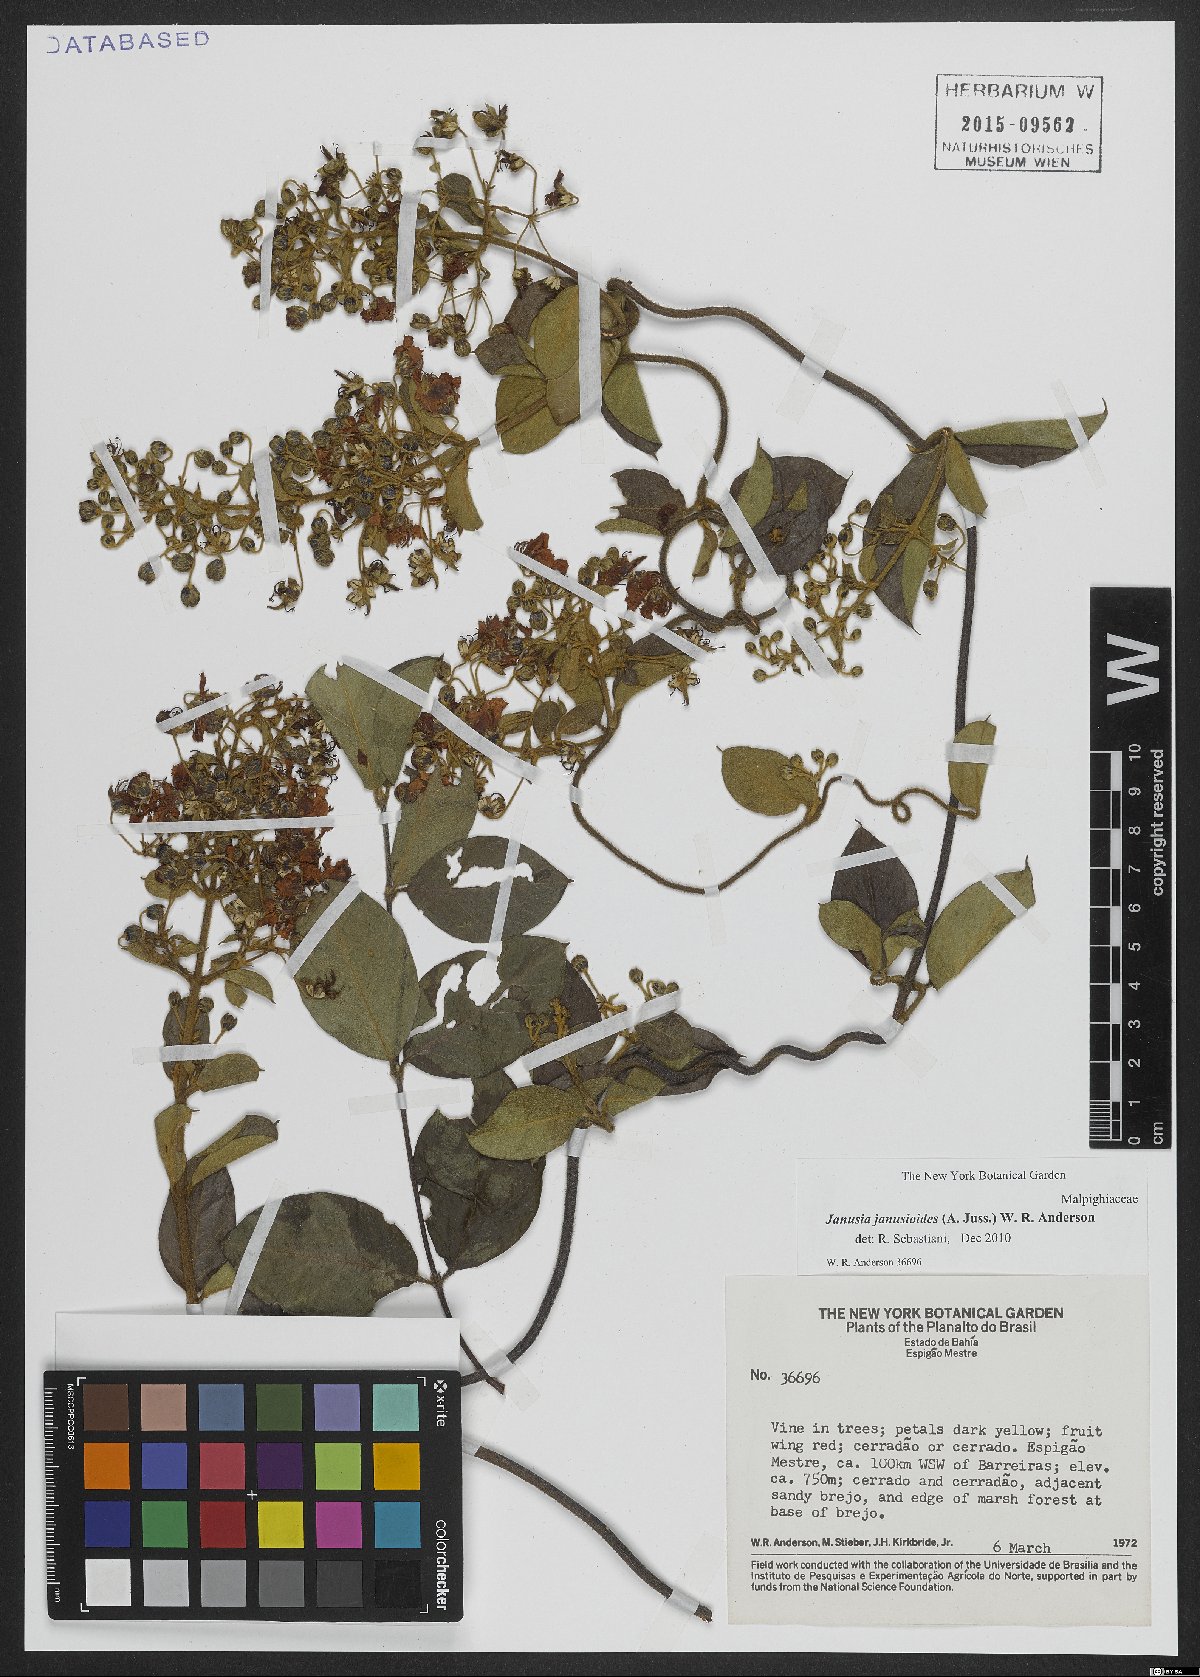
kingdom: Plantae
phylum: Tracheophyta
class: Magnoliopsida
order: Malpighiales
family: Malpighiaceae
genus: Janusia
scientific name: Janusia janusioides
